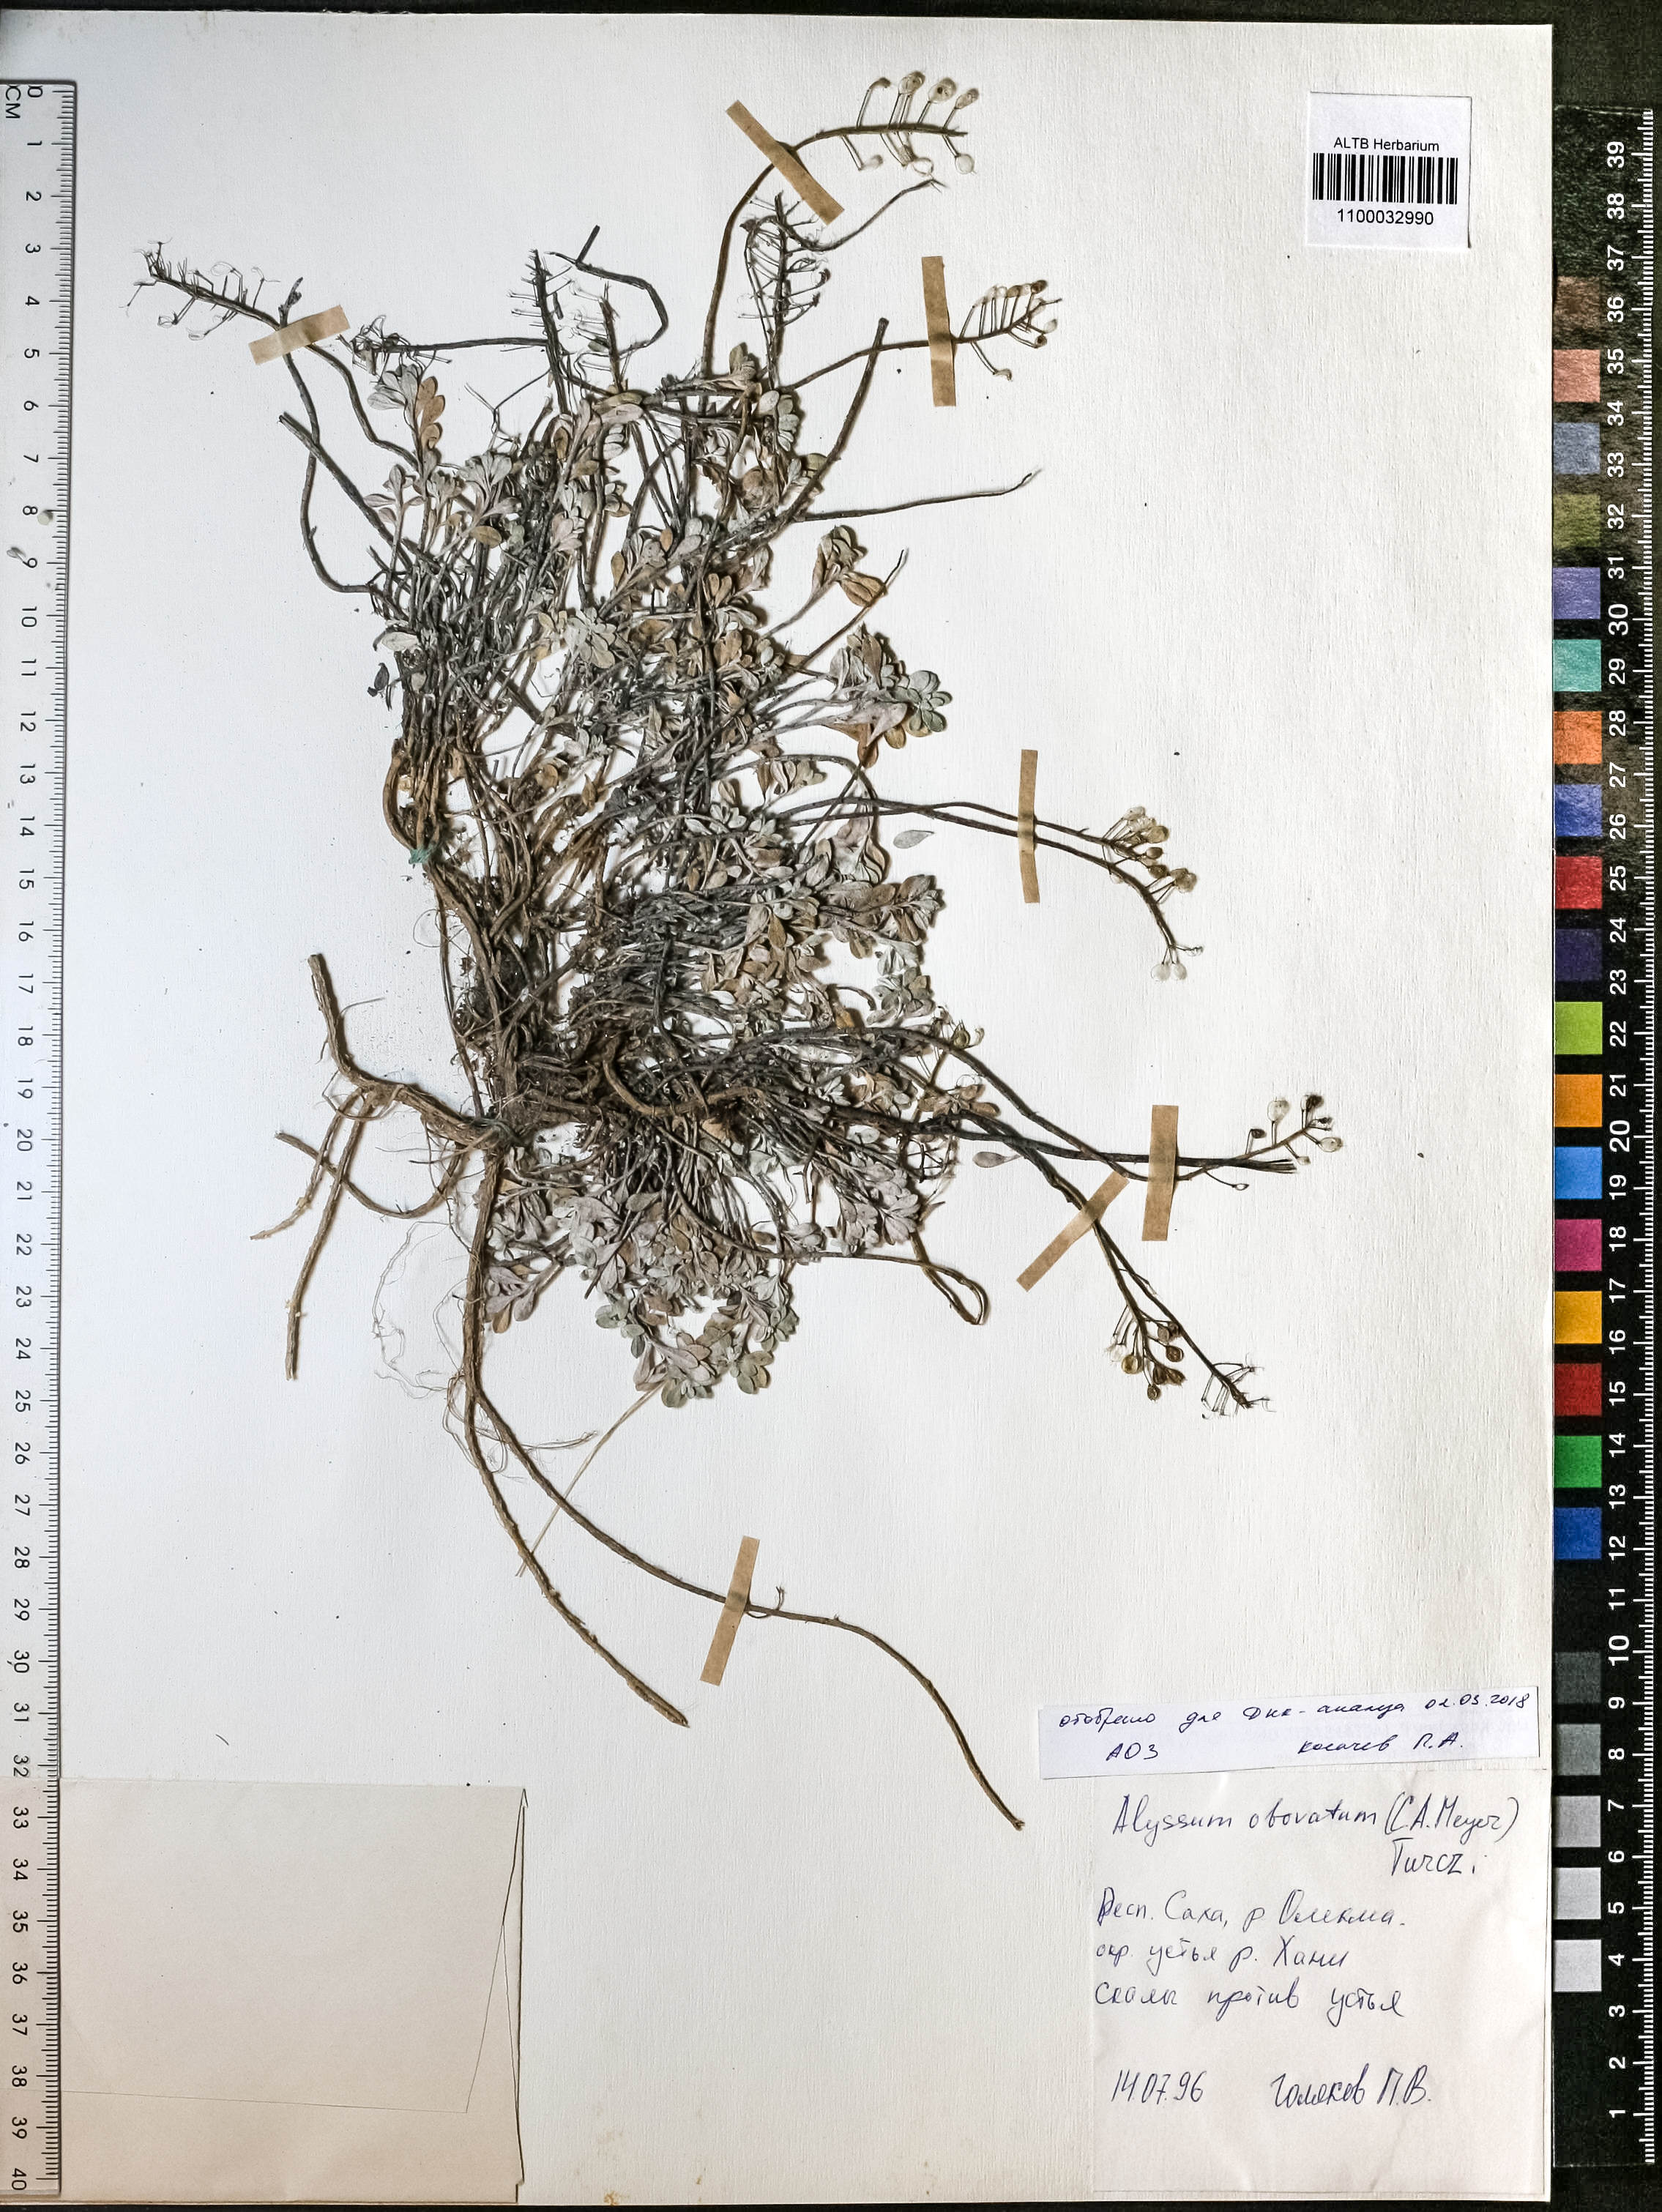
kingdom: Plantae
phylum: Tracheophyta
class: Magnoliopsida
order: Brassicales
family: Brassicaceae
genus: Odontarrhena
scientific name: Odontarrhena obovata
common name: American alyssum
